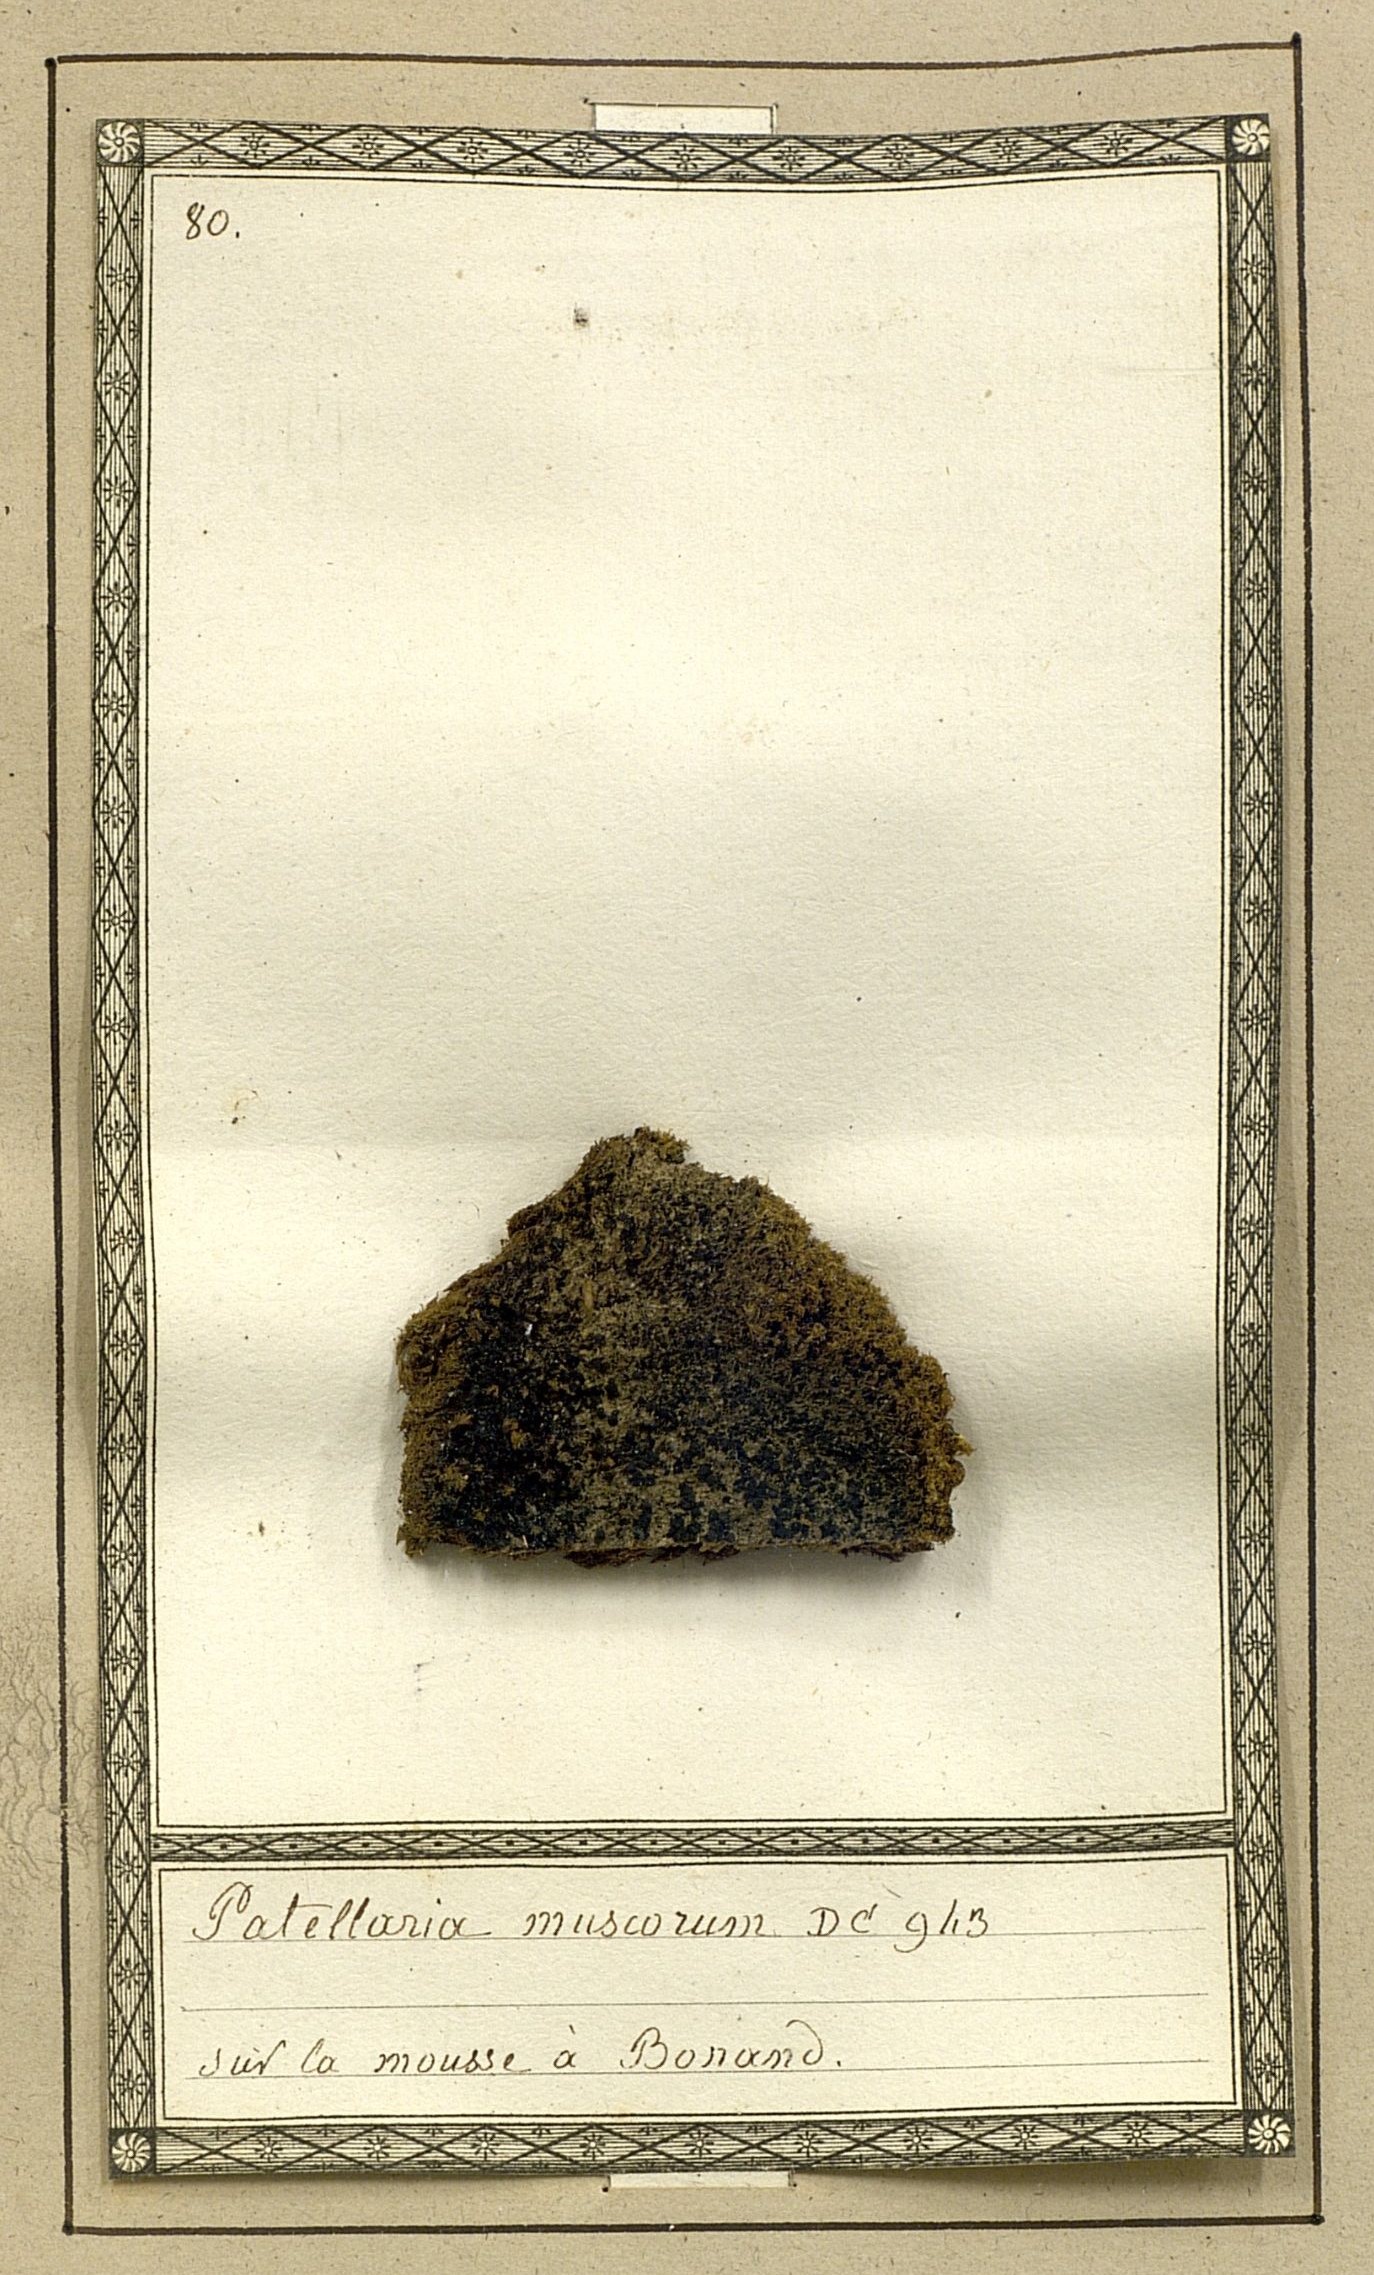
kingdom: Fungi
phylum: Ascomycota
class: Lecanoromycetes
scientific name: Lecanoromycetes
